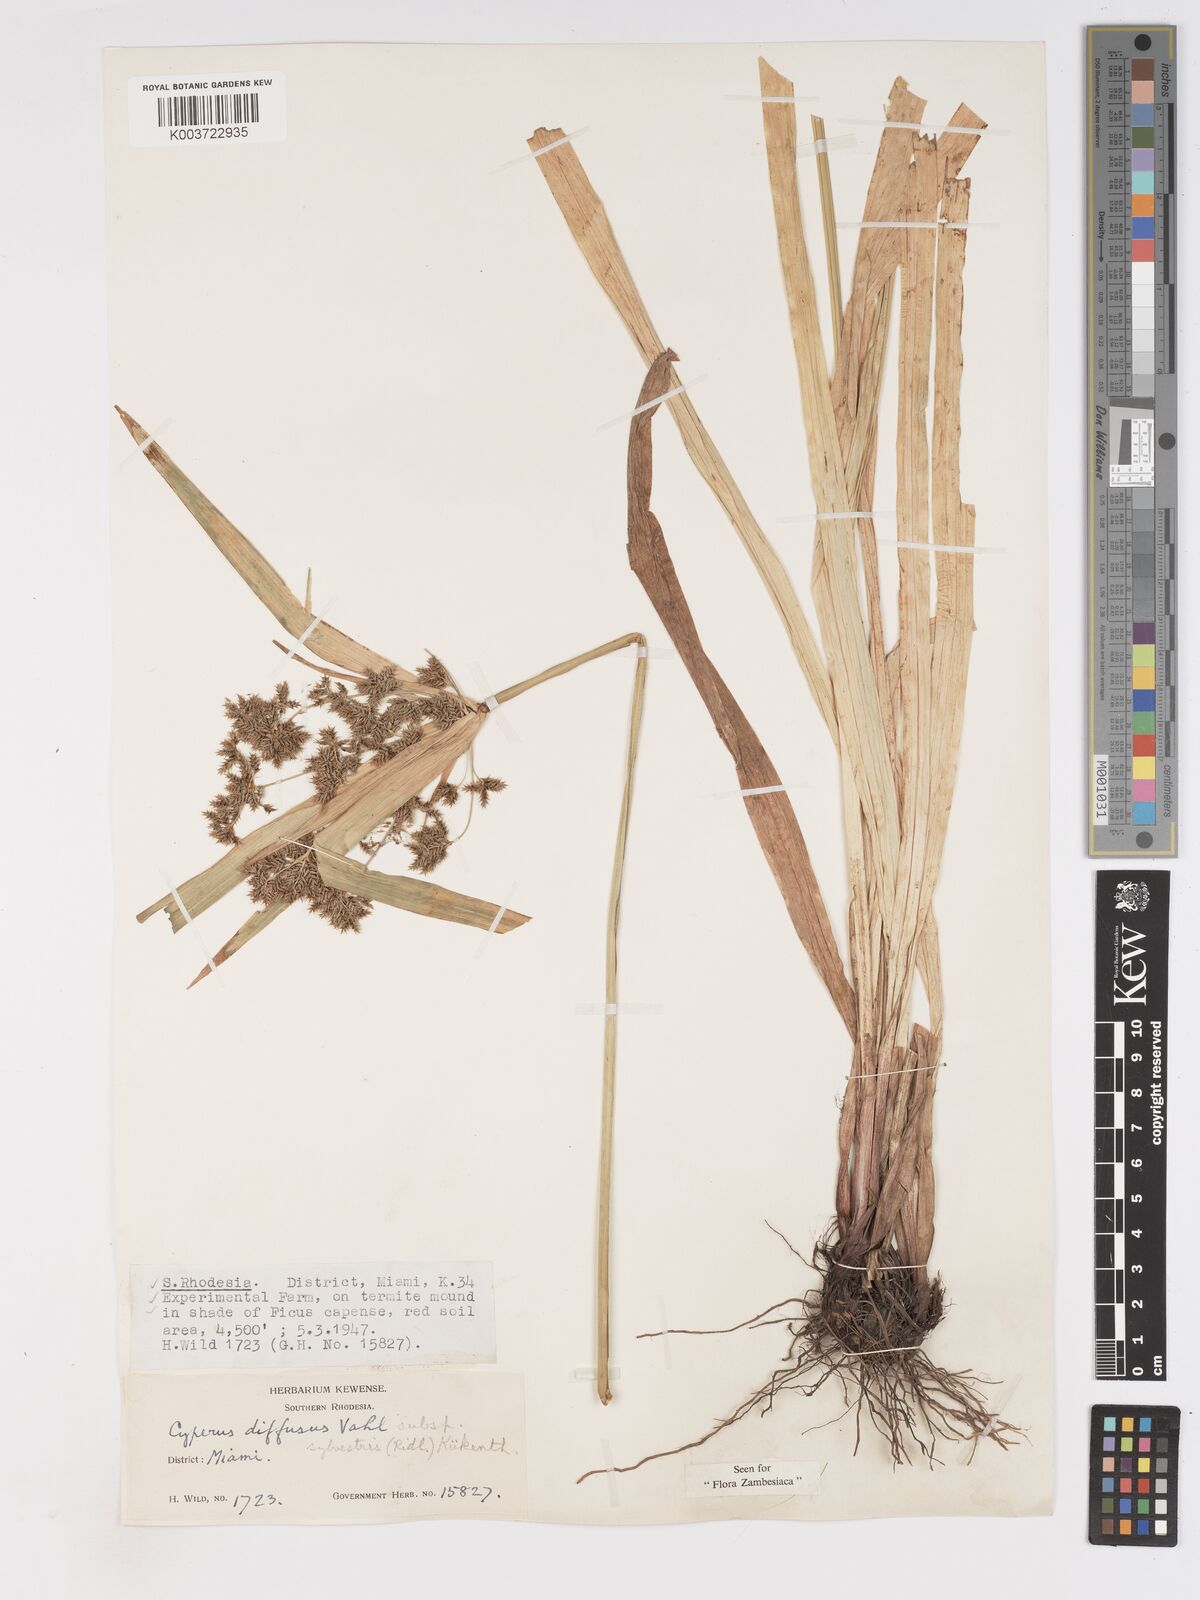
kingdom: Plantae
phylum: Tracheophyta
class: Liliopsida
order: Poales
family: Cyperaceae
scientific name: Cyperaceae
